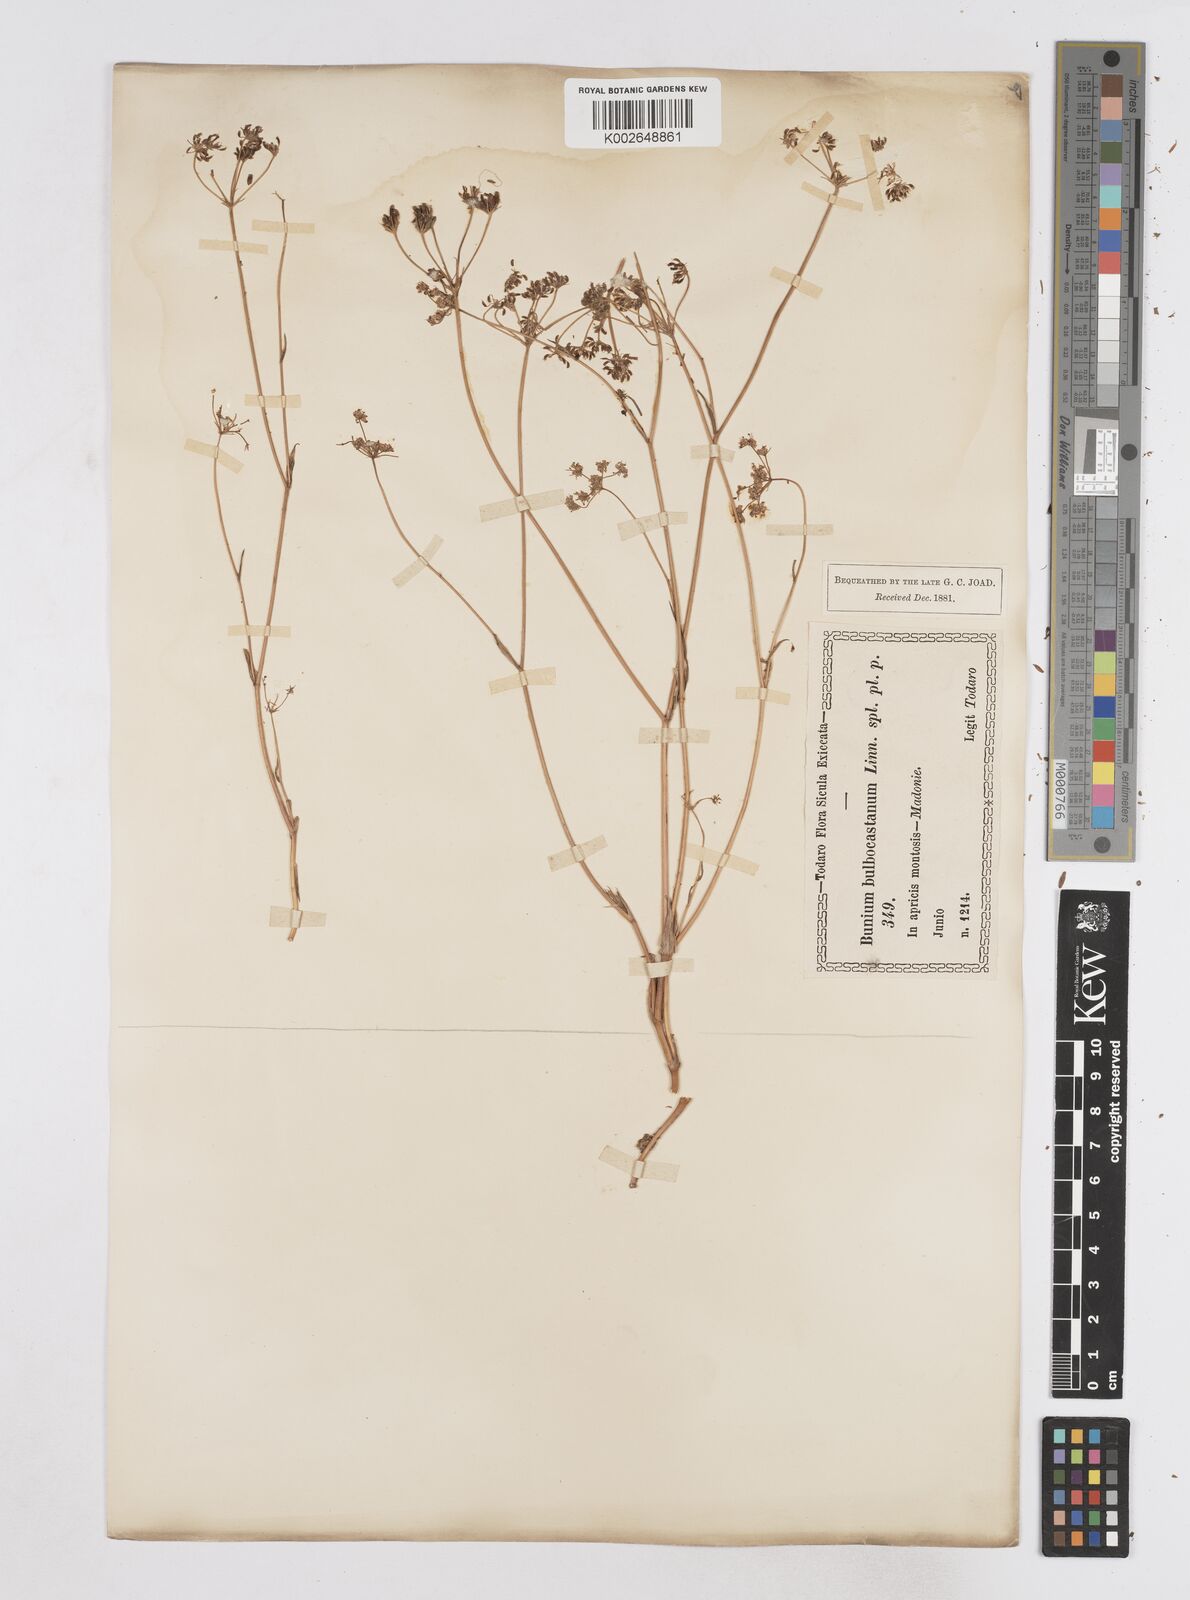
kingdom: Plantae
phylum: Tracheophyta
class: Magnoliopsida
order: Apiales
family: Apiaceae
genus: Bunium
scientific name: Bunium bulbocastanum
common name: Great pignut
